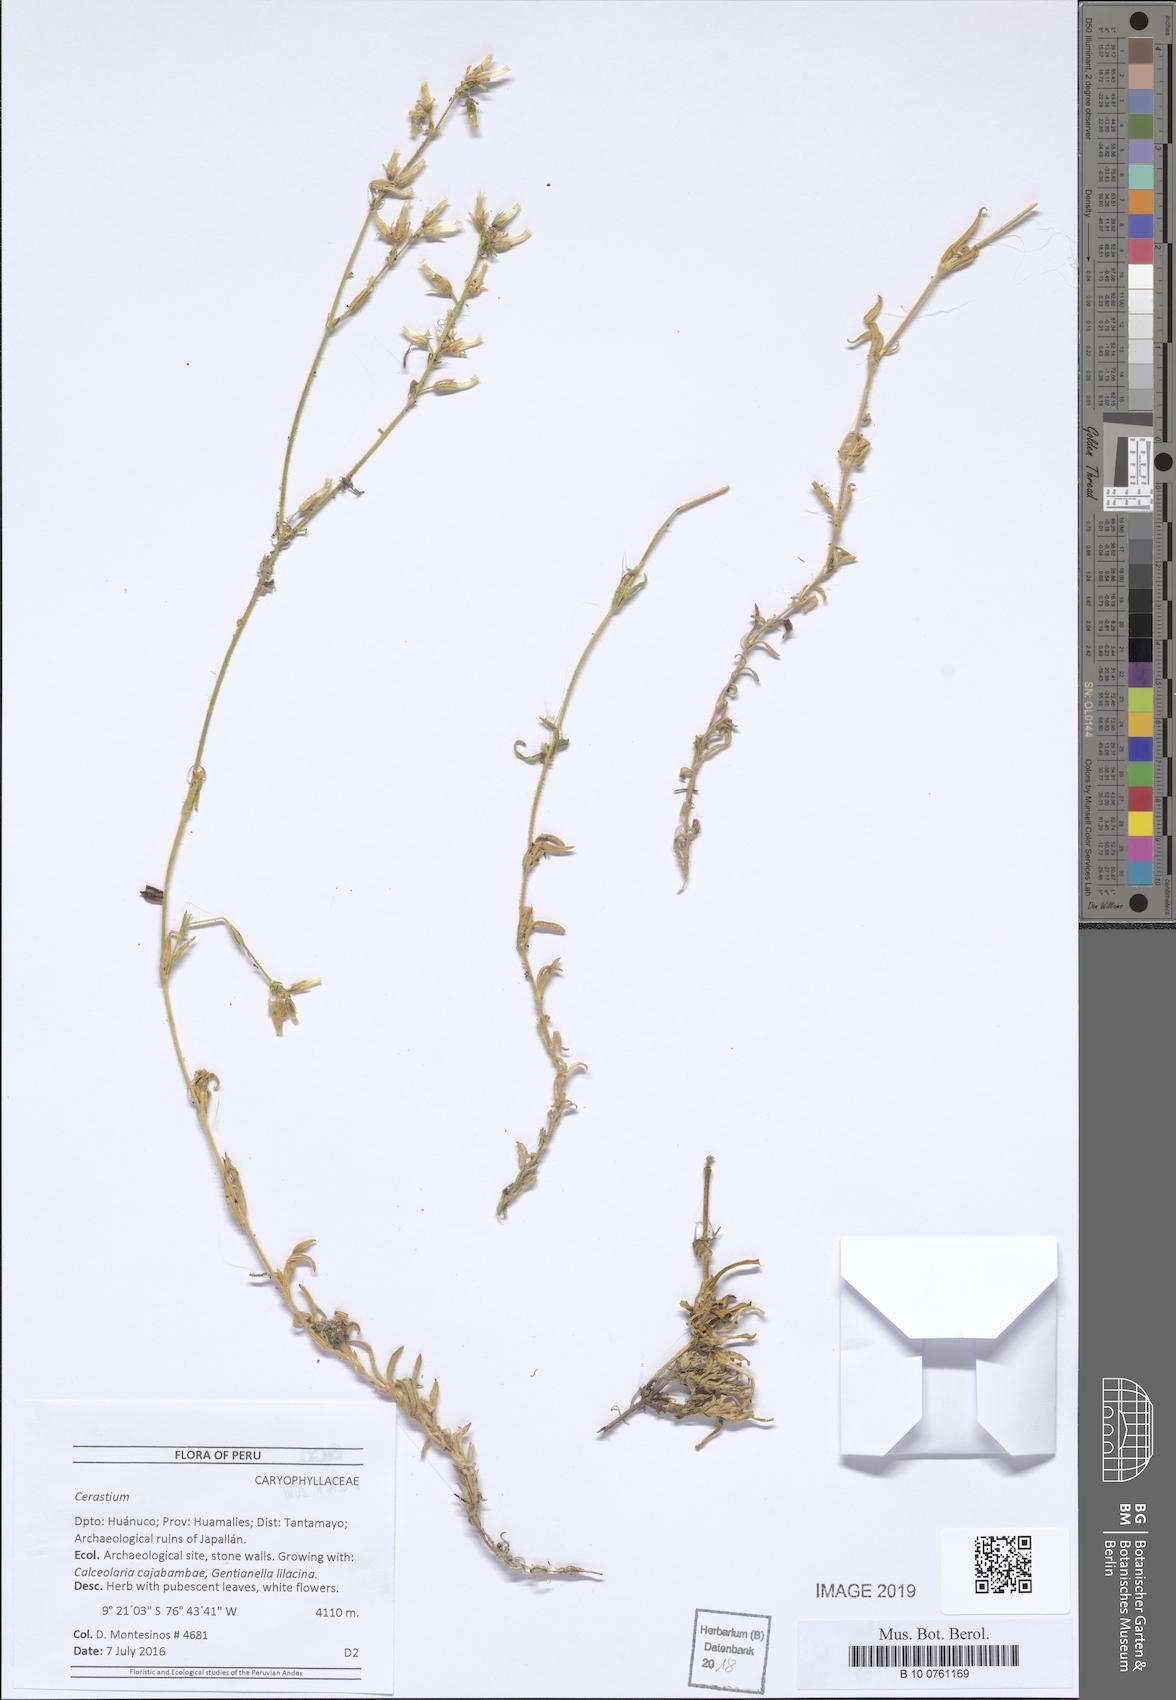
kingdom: Plantae
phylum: Tracheophyta
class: Magnoliopsida
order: Caryophyllales
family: Caryophyllaceae
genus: Cerastium
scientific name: Cerastium
